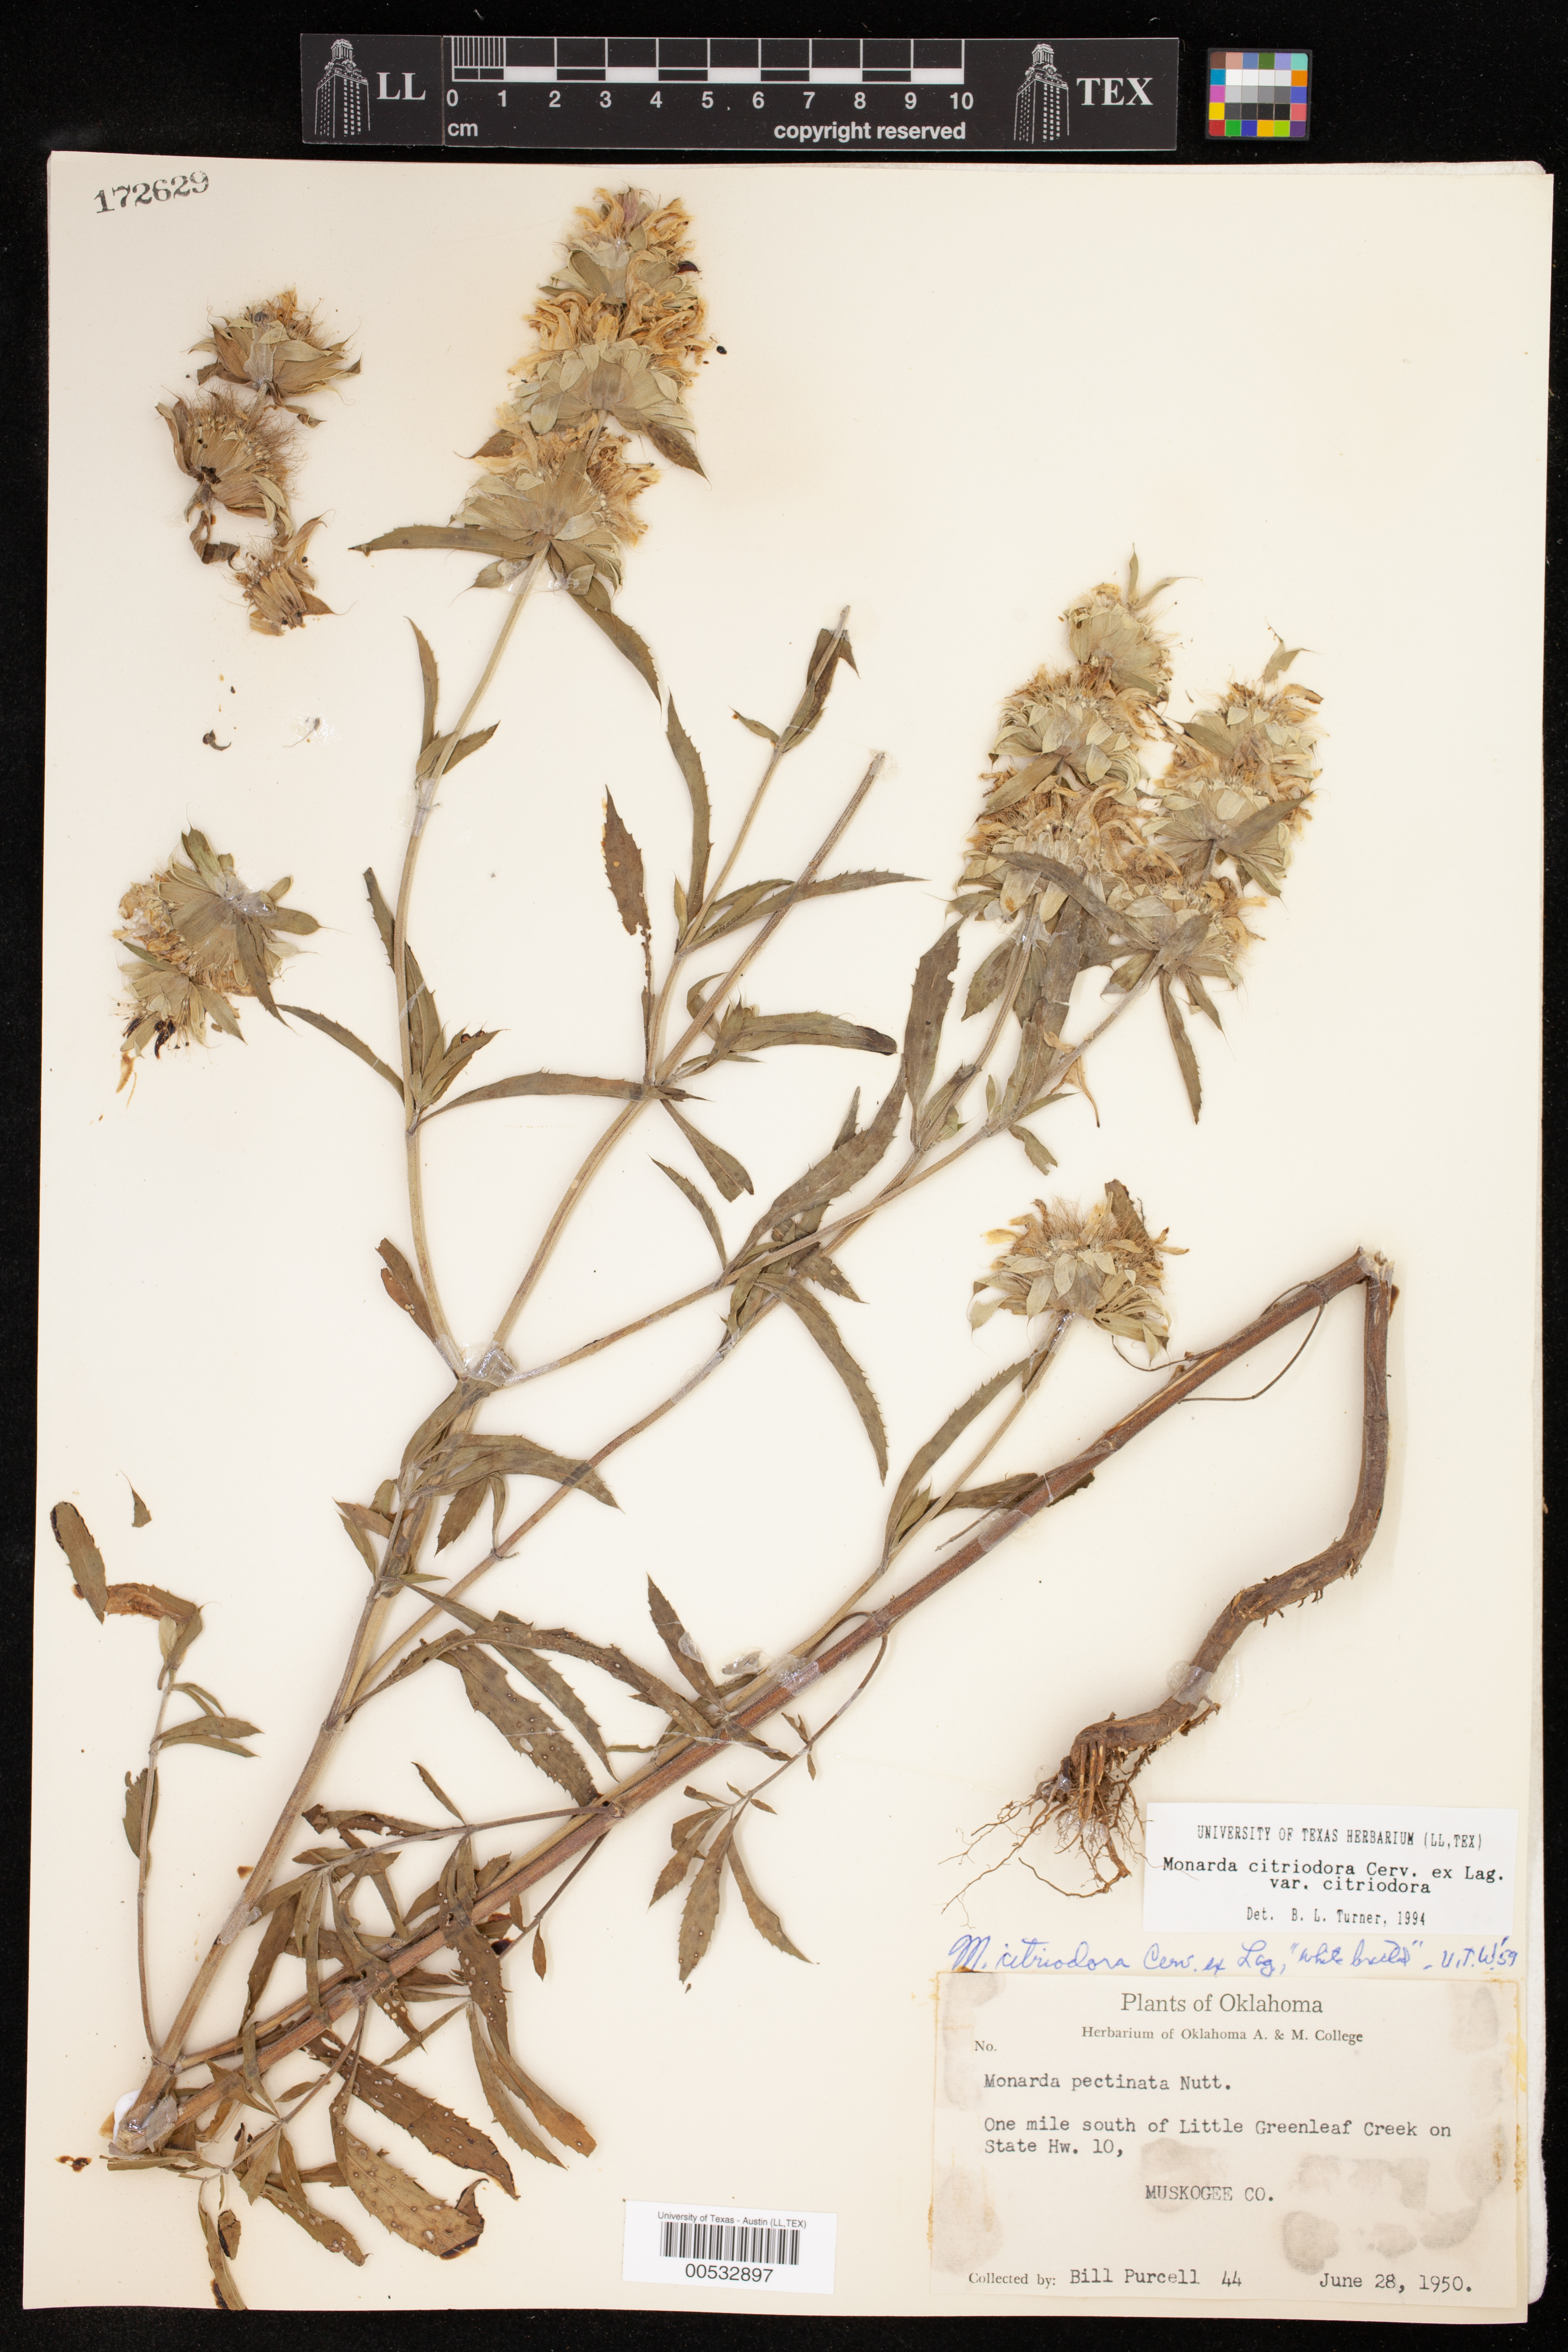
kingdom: Plantae
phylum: Tracheophyta
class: Magnoliopsida
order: Lamiales
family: Lamiaceae
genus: Monarda
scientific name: Monarda citriodora
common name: Lemon beebalm
